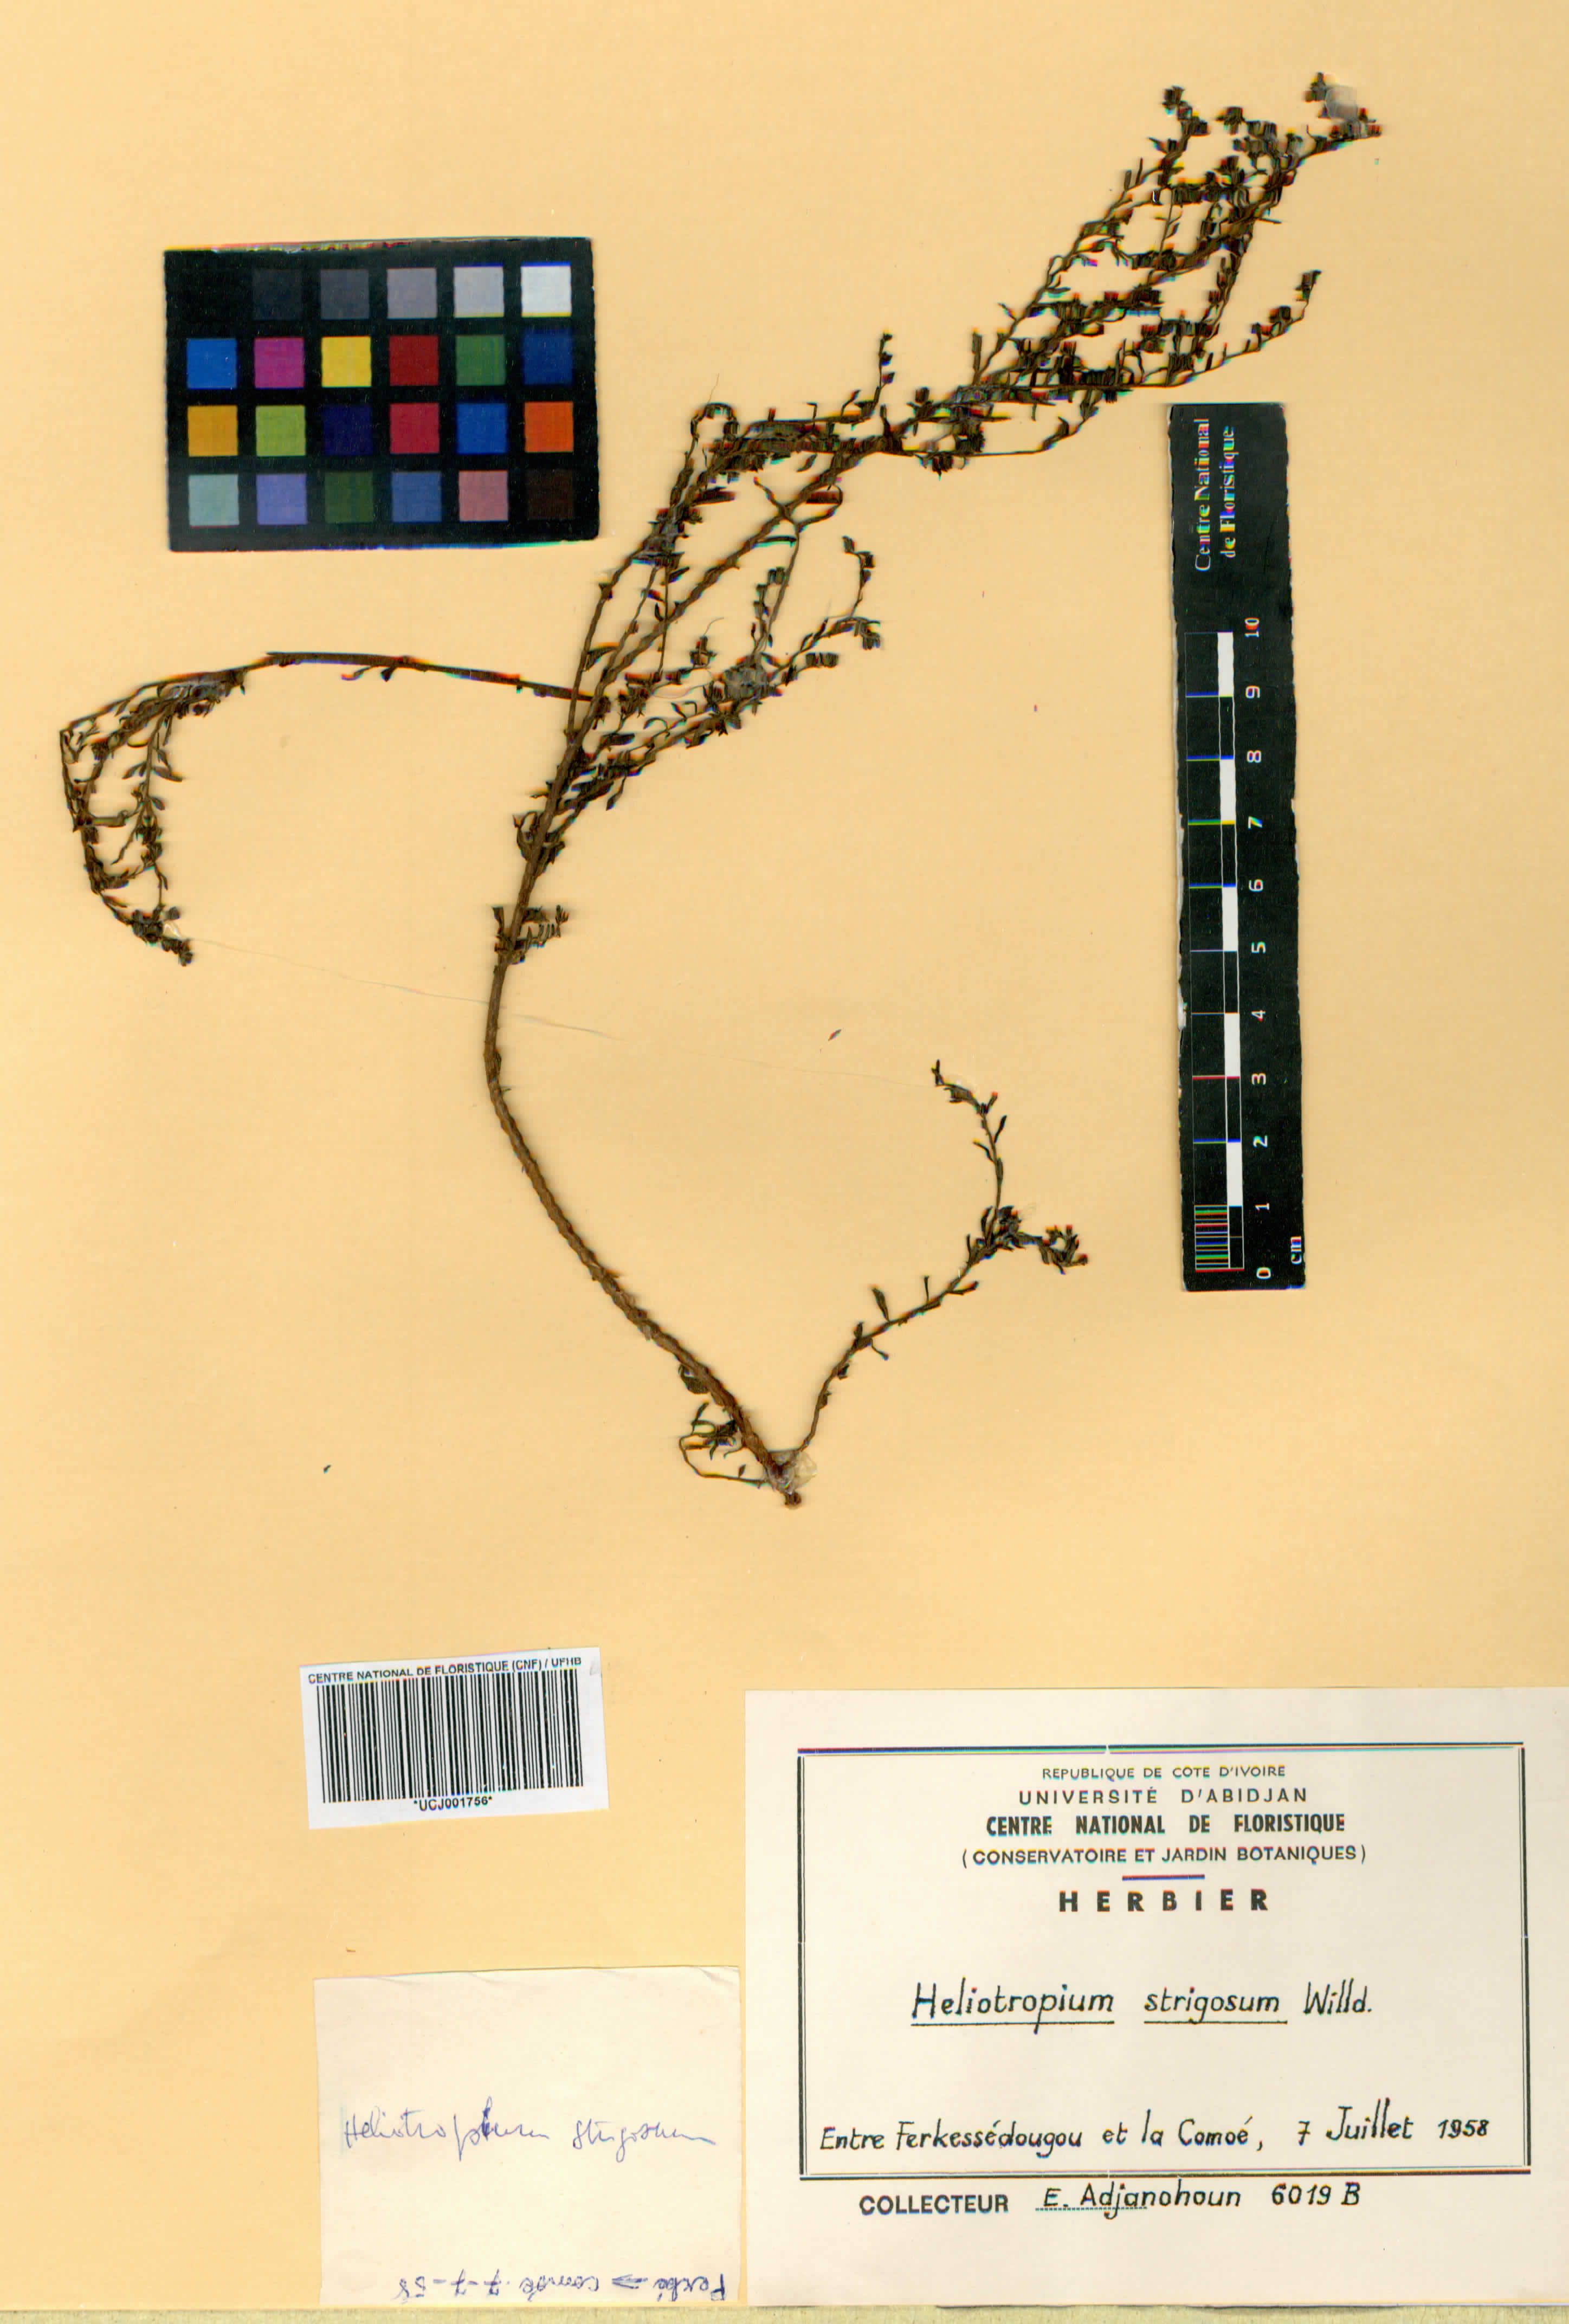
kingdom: Plantae
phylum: Tracheophyta
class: Magnoliopsida
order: Boraginales
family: Heliotropiaceae
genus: Euploca
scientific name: Euploca strigosa
